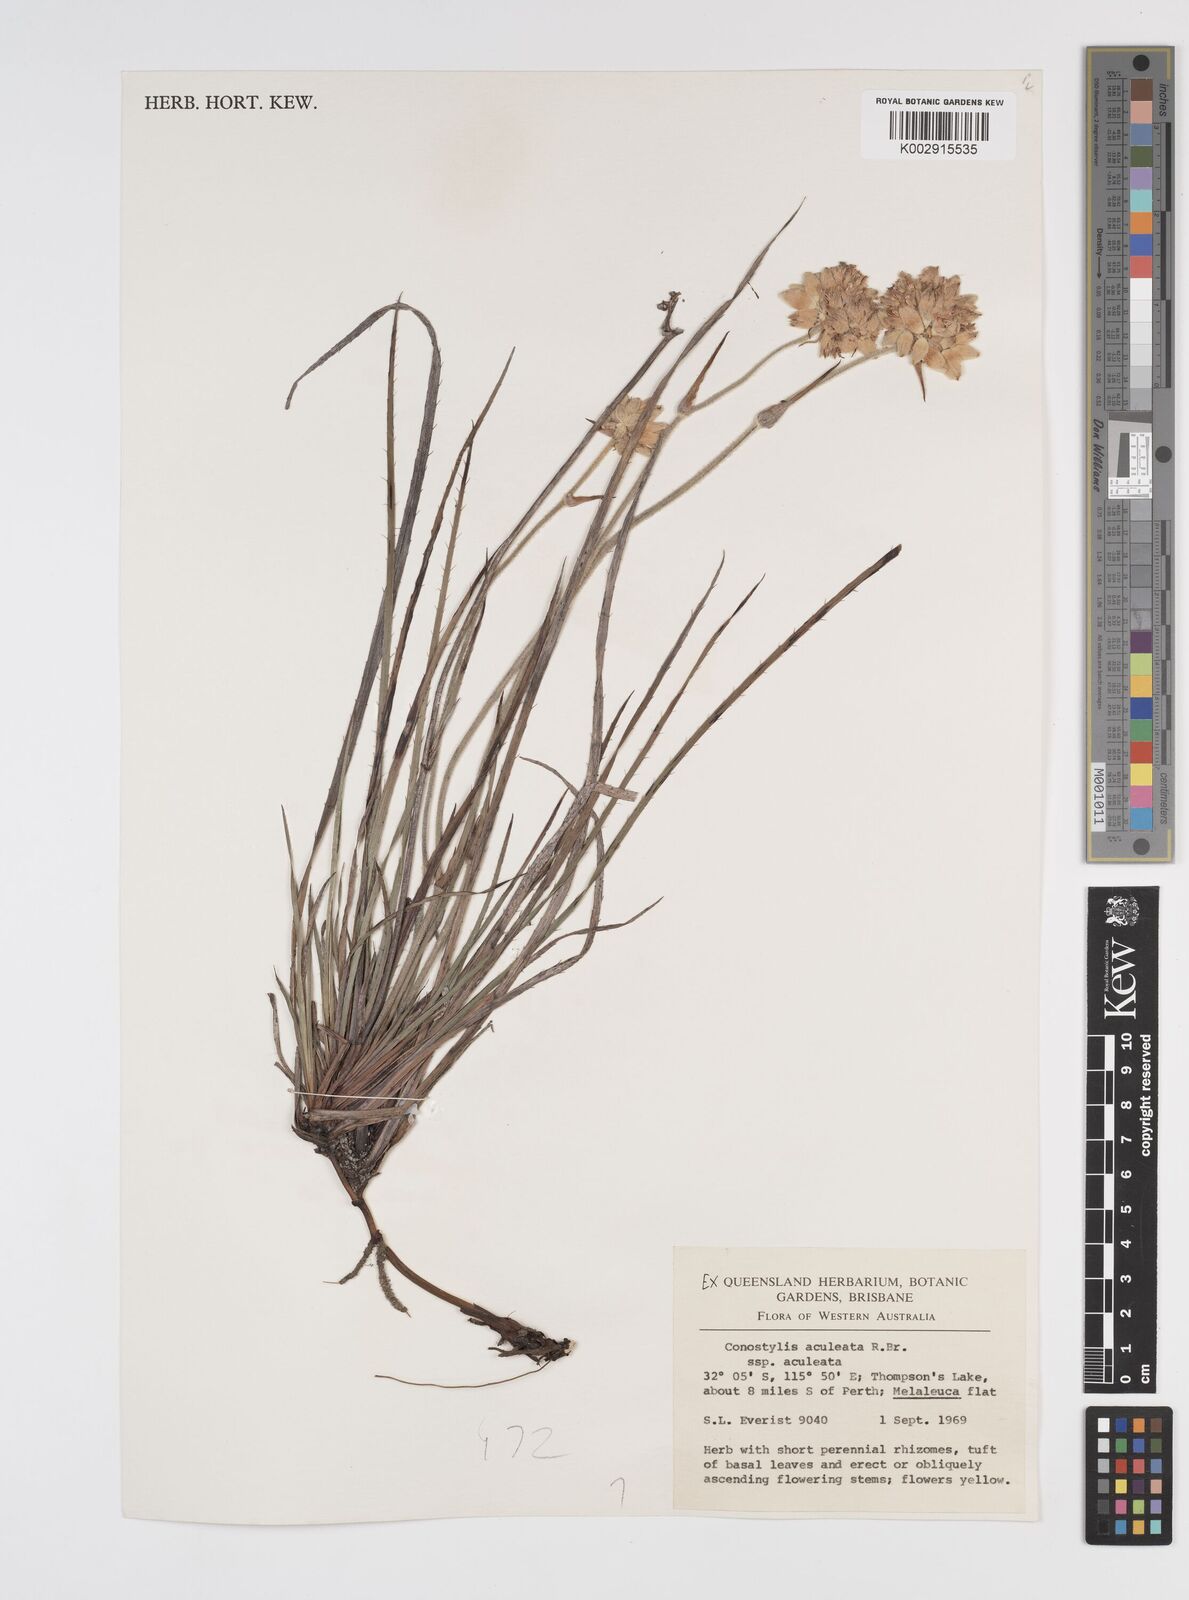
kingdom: Plantae
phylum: Tracheophyta
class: Liliopsida
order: Commelinales
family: Haemodoraceae
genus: Conostylis
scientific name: Conostylis aculeata
